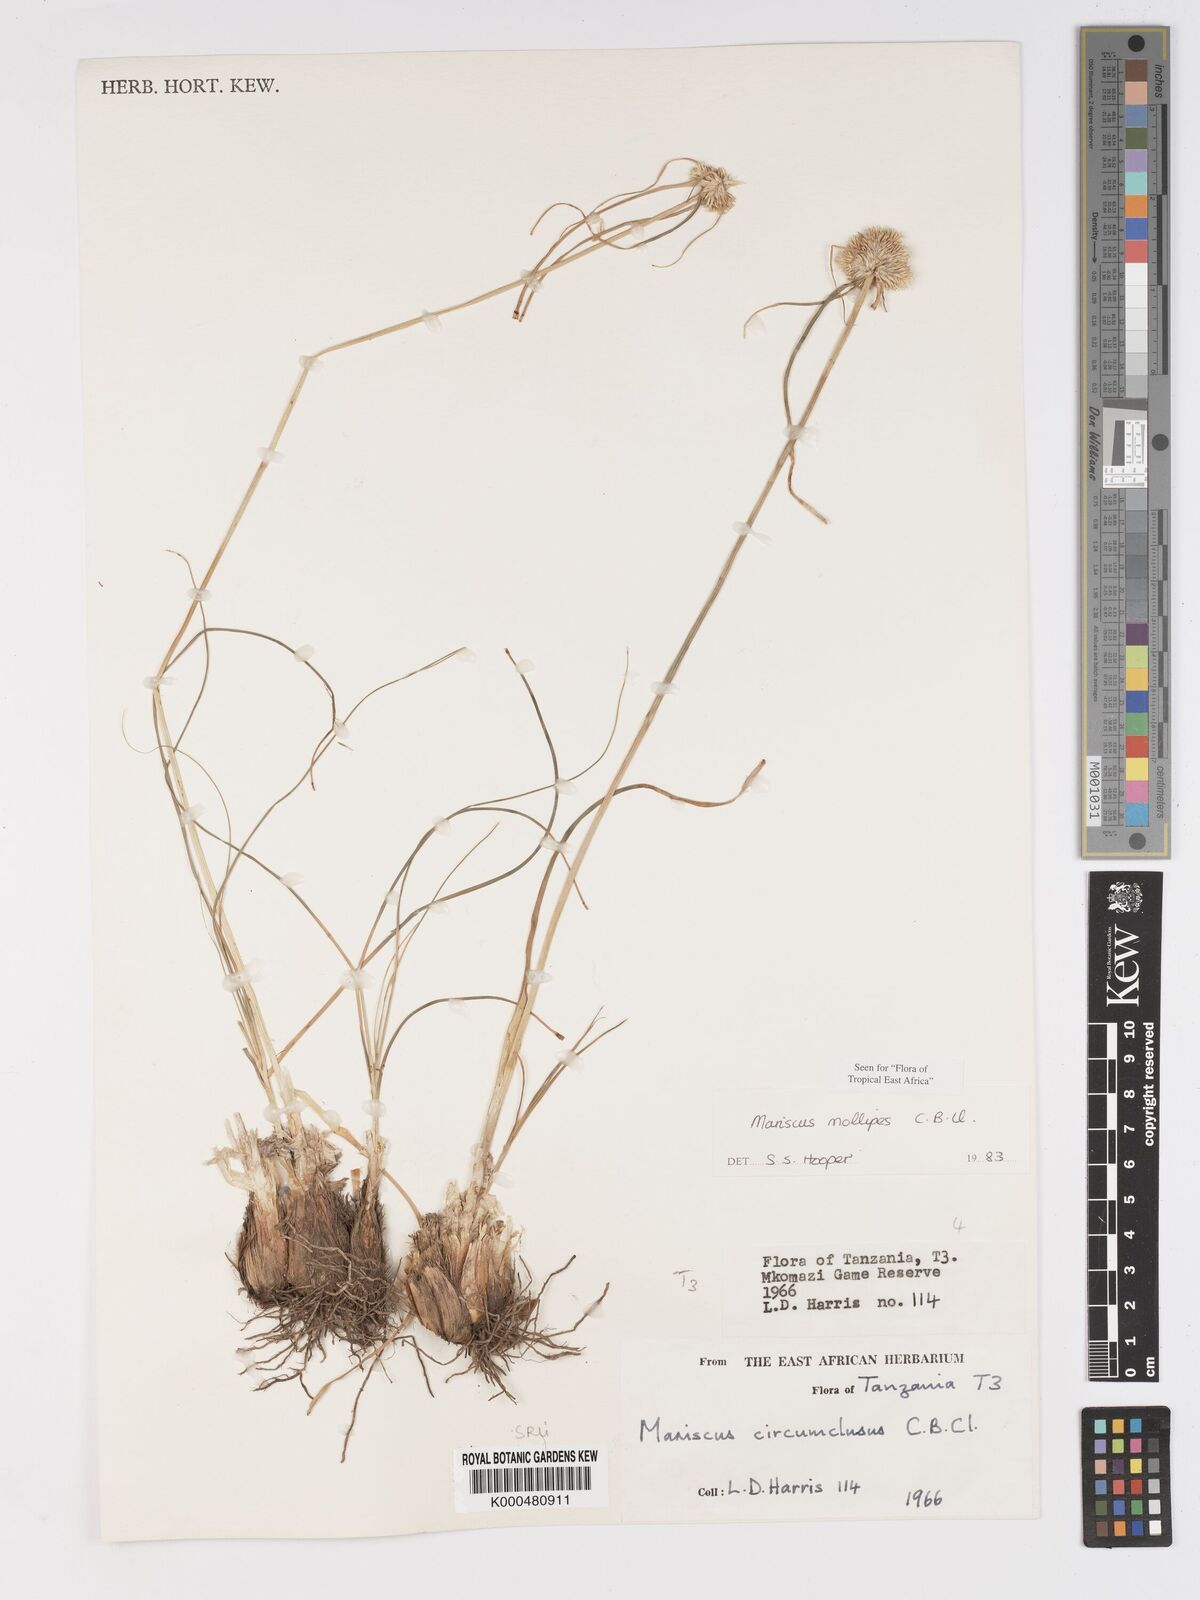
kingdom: Plantae
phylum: Tracheophyta
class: Liliopsida
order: Poales
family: Cyperaceae
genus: Cyperus
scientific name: Cyperus mollipes
